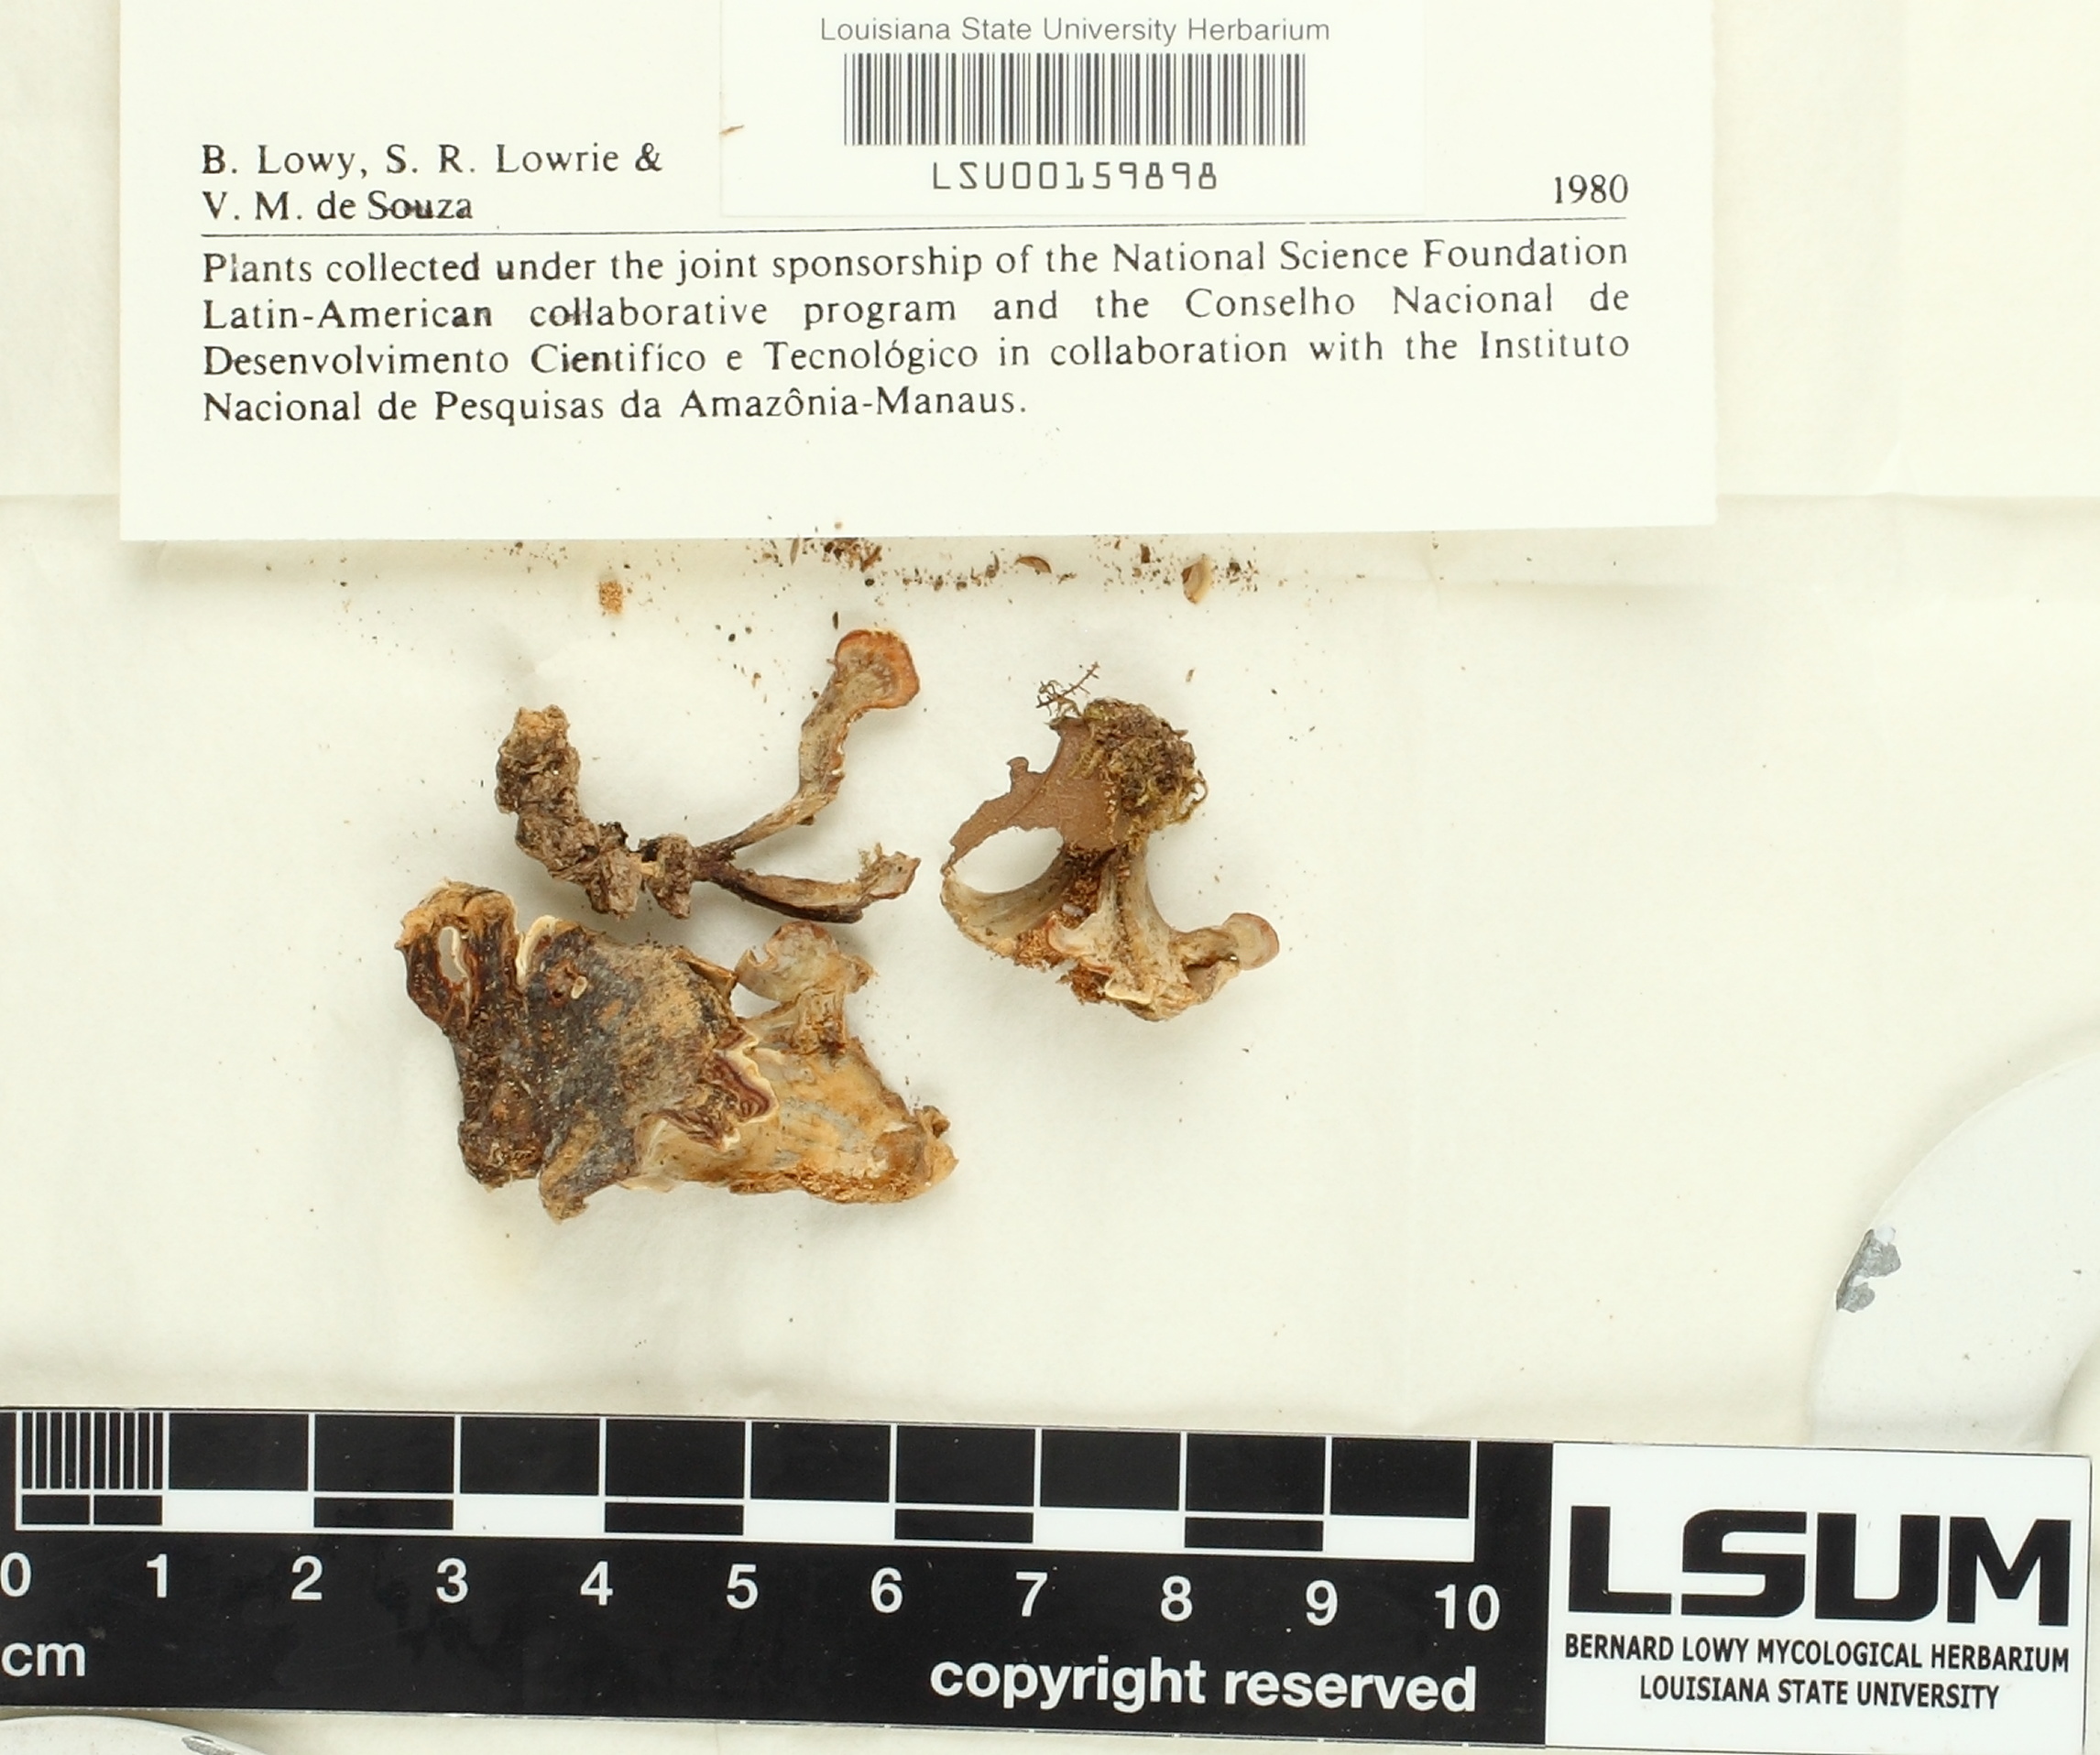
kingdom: Fungi
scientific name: Fungi
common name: Fungi
